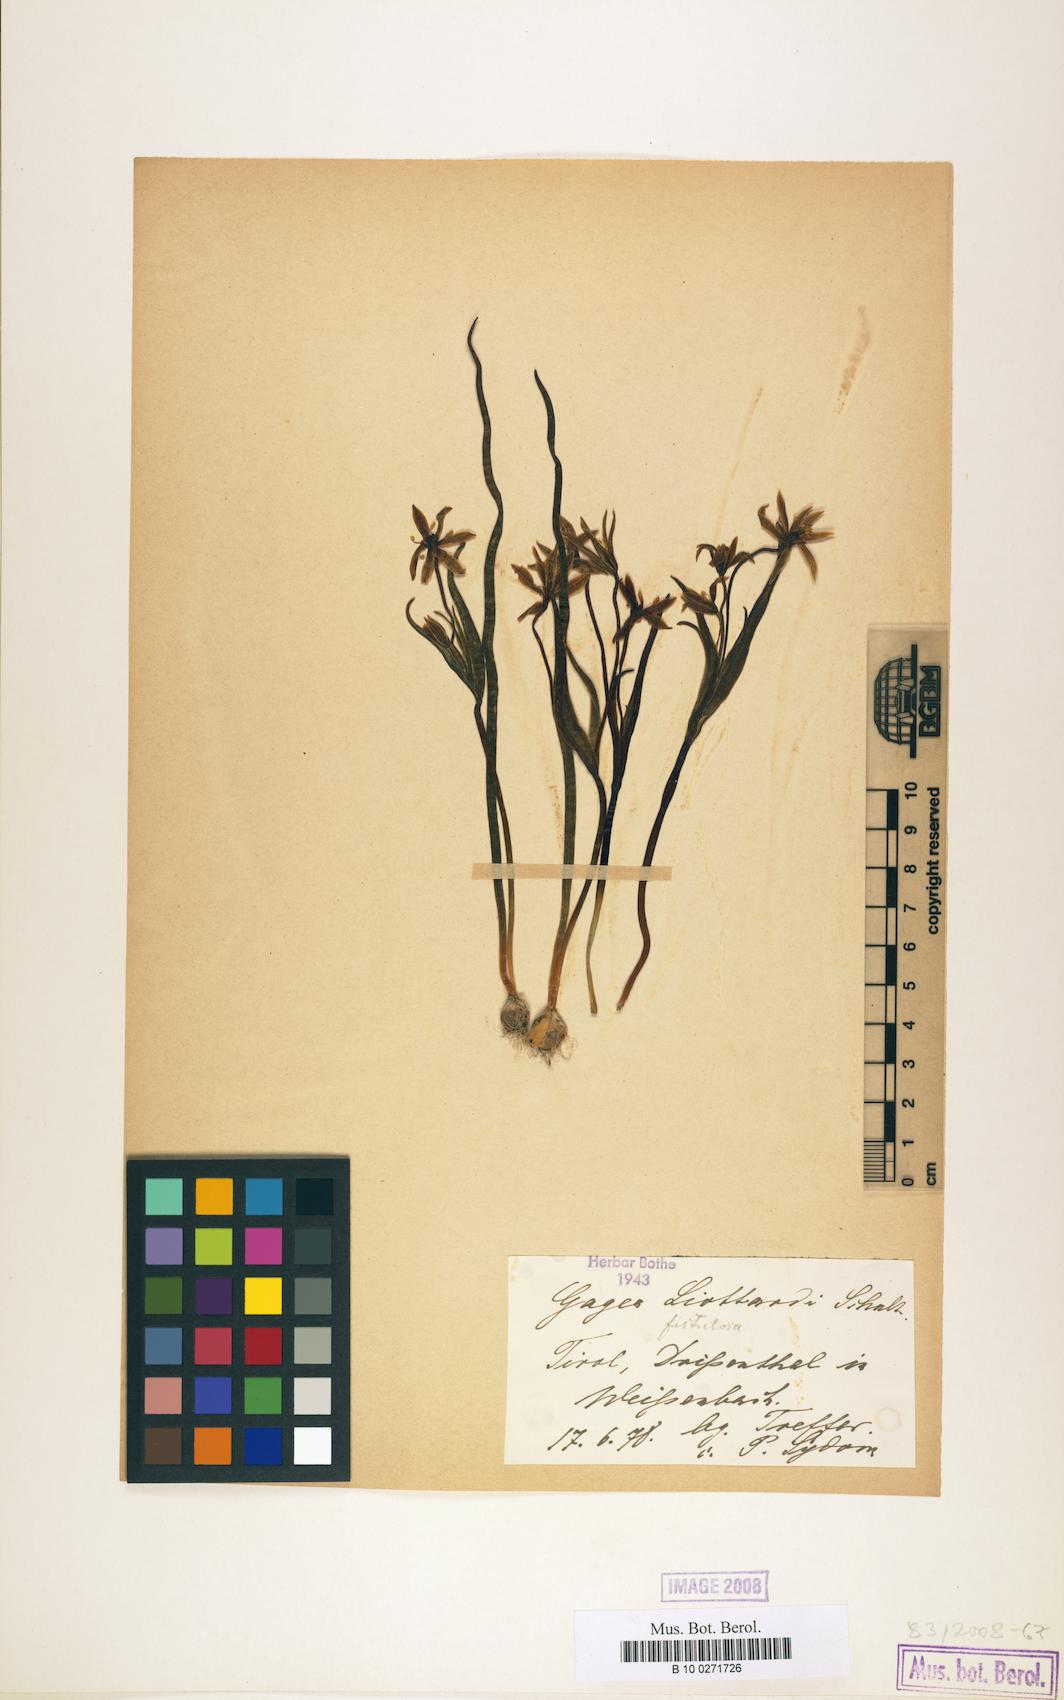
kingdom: Plantae
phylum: Tracheophyta
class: Liliopsida
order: Liliales
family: Liliaceae
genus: Gagea
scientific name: Gagea bohemica
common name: Early star-of-bethlehem
